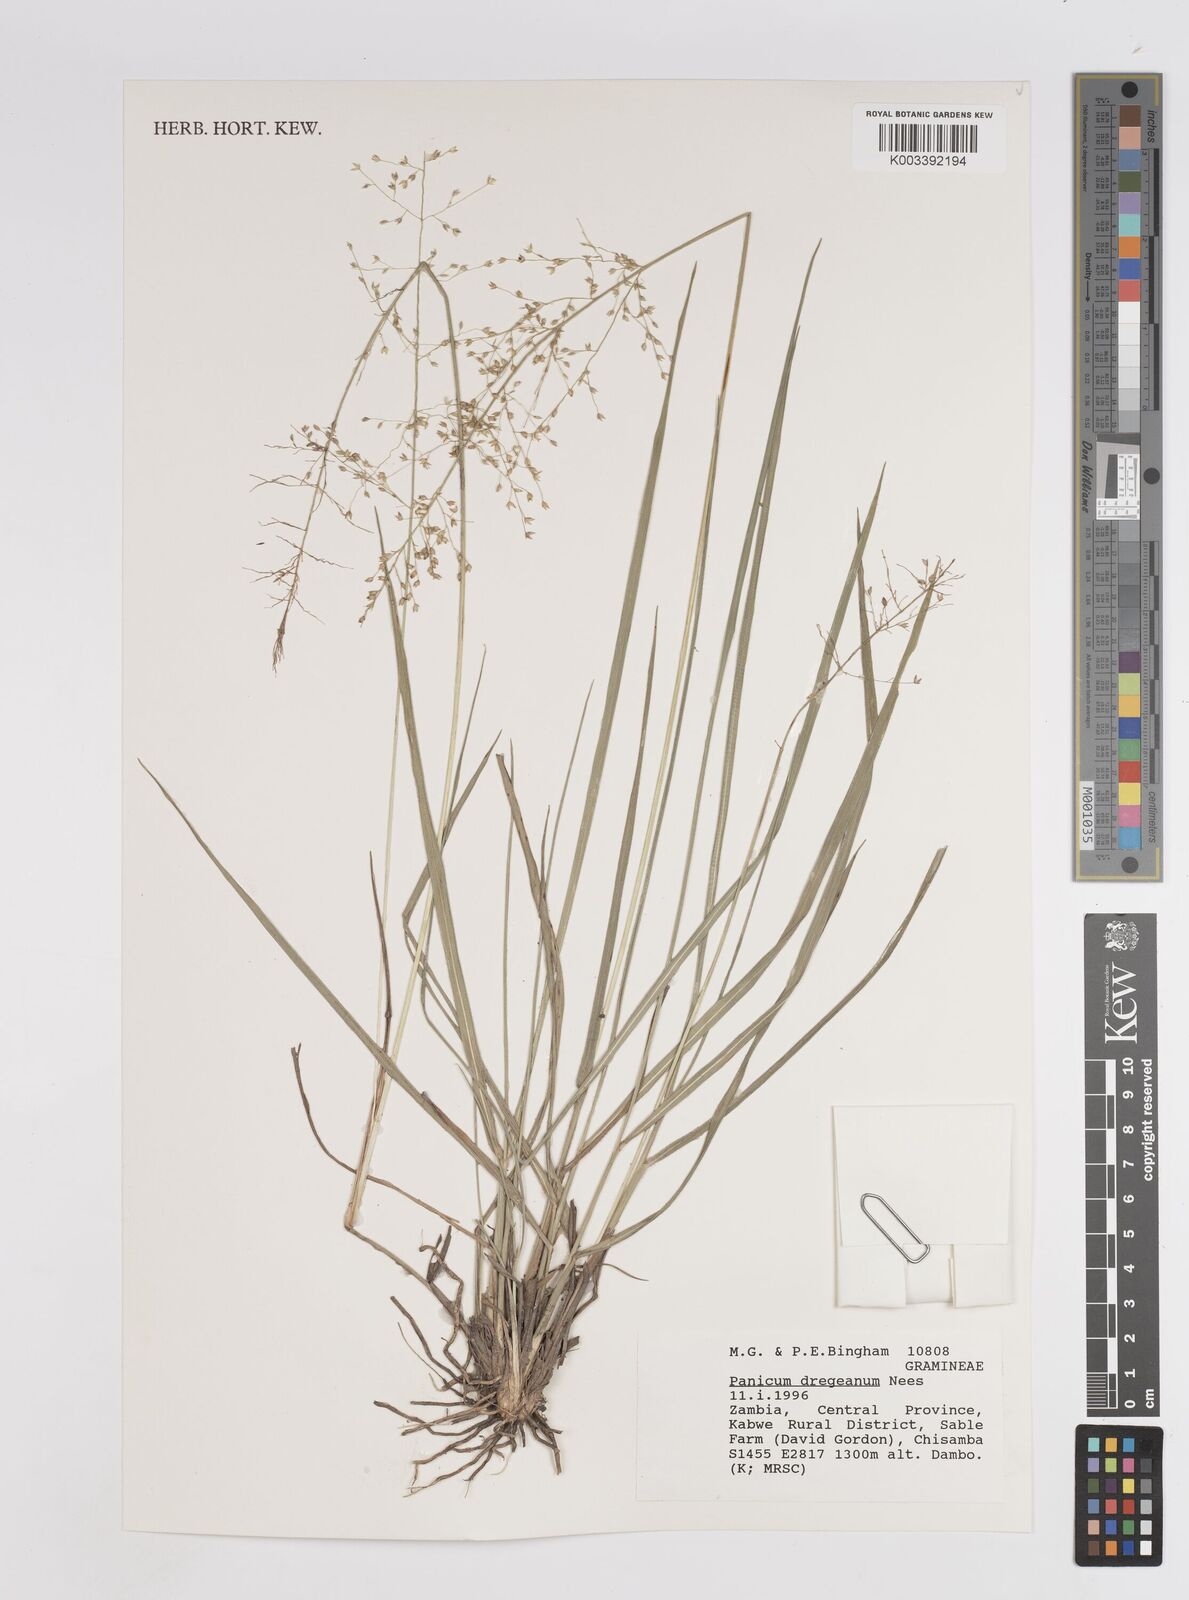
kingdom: Plantae
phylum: Tracheophyta
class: Liliopsida
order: Poales
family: Poaceae
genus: Panicum
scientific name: Panicum dregeanum
